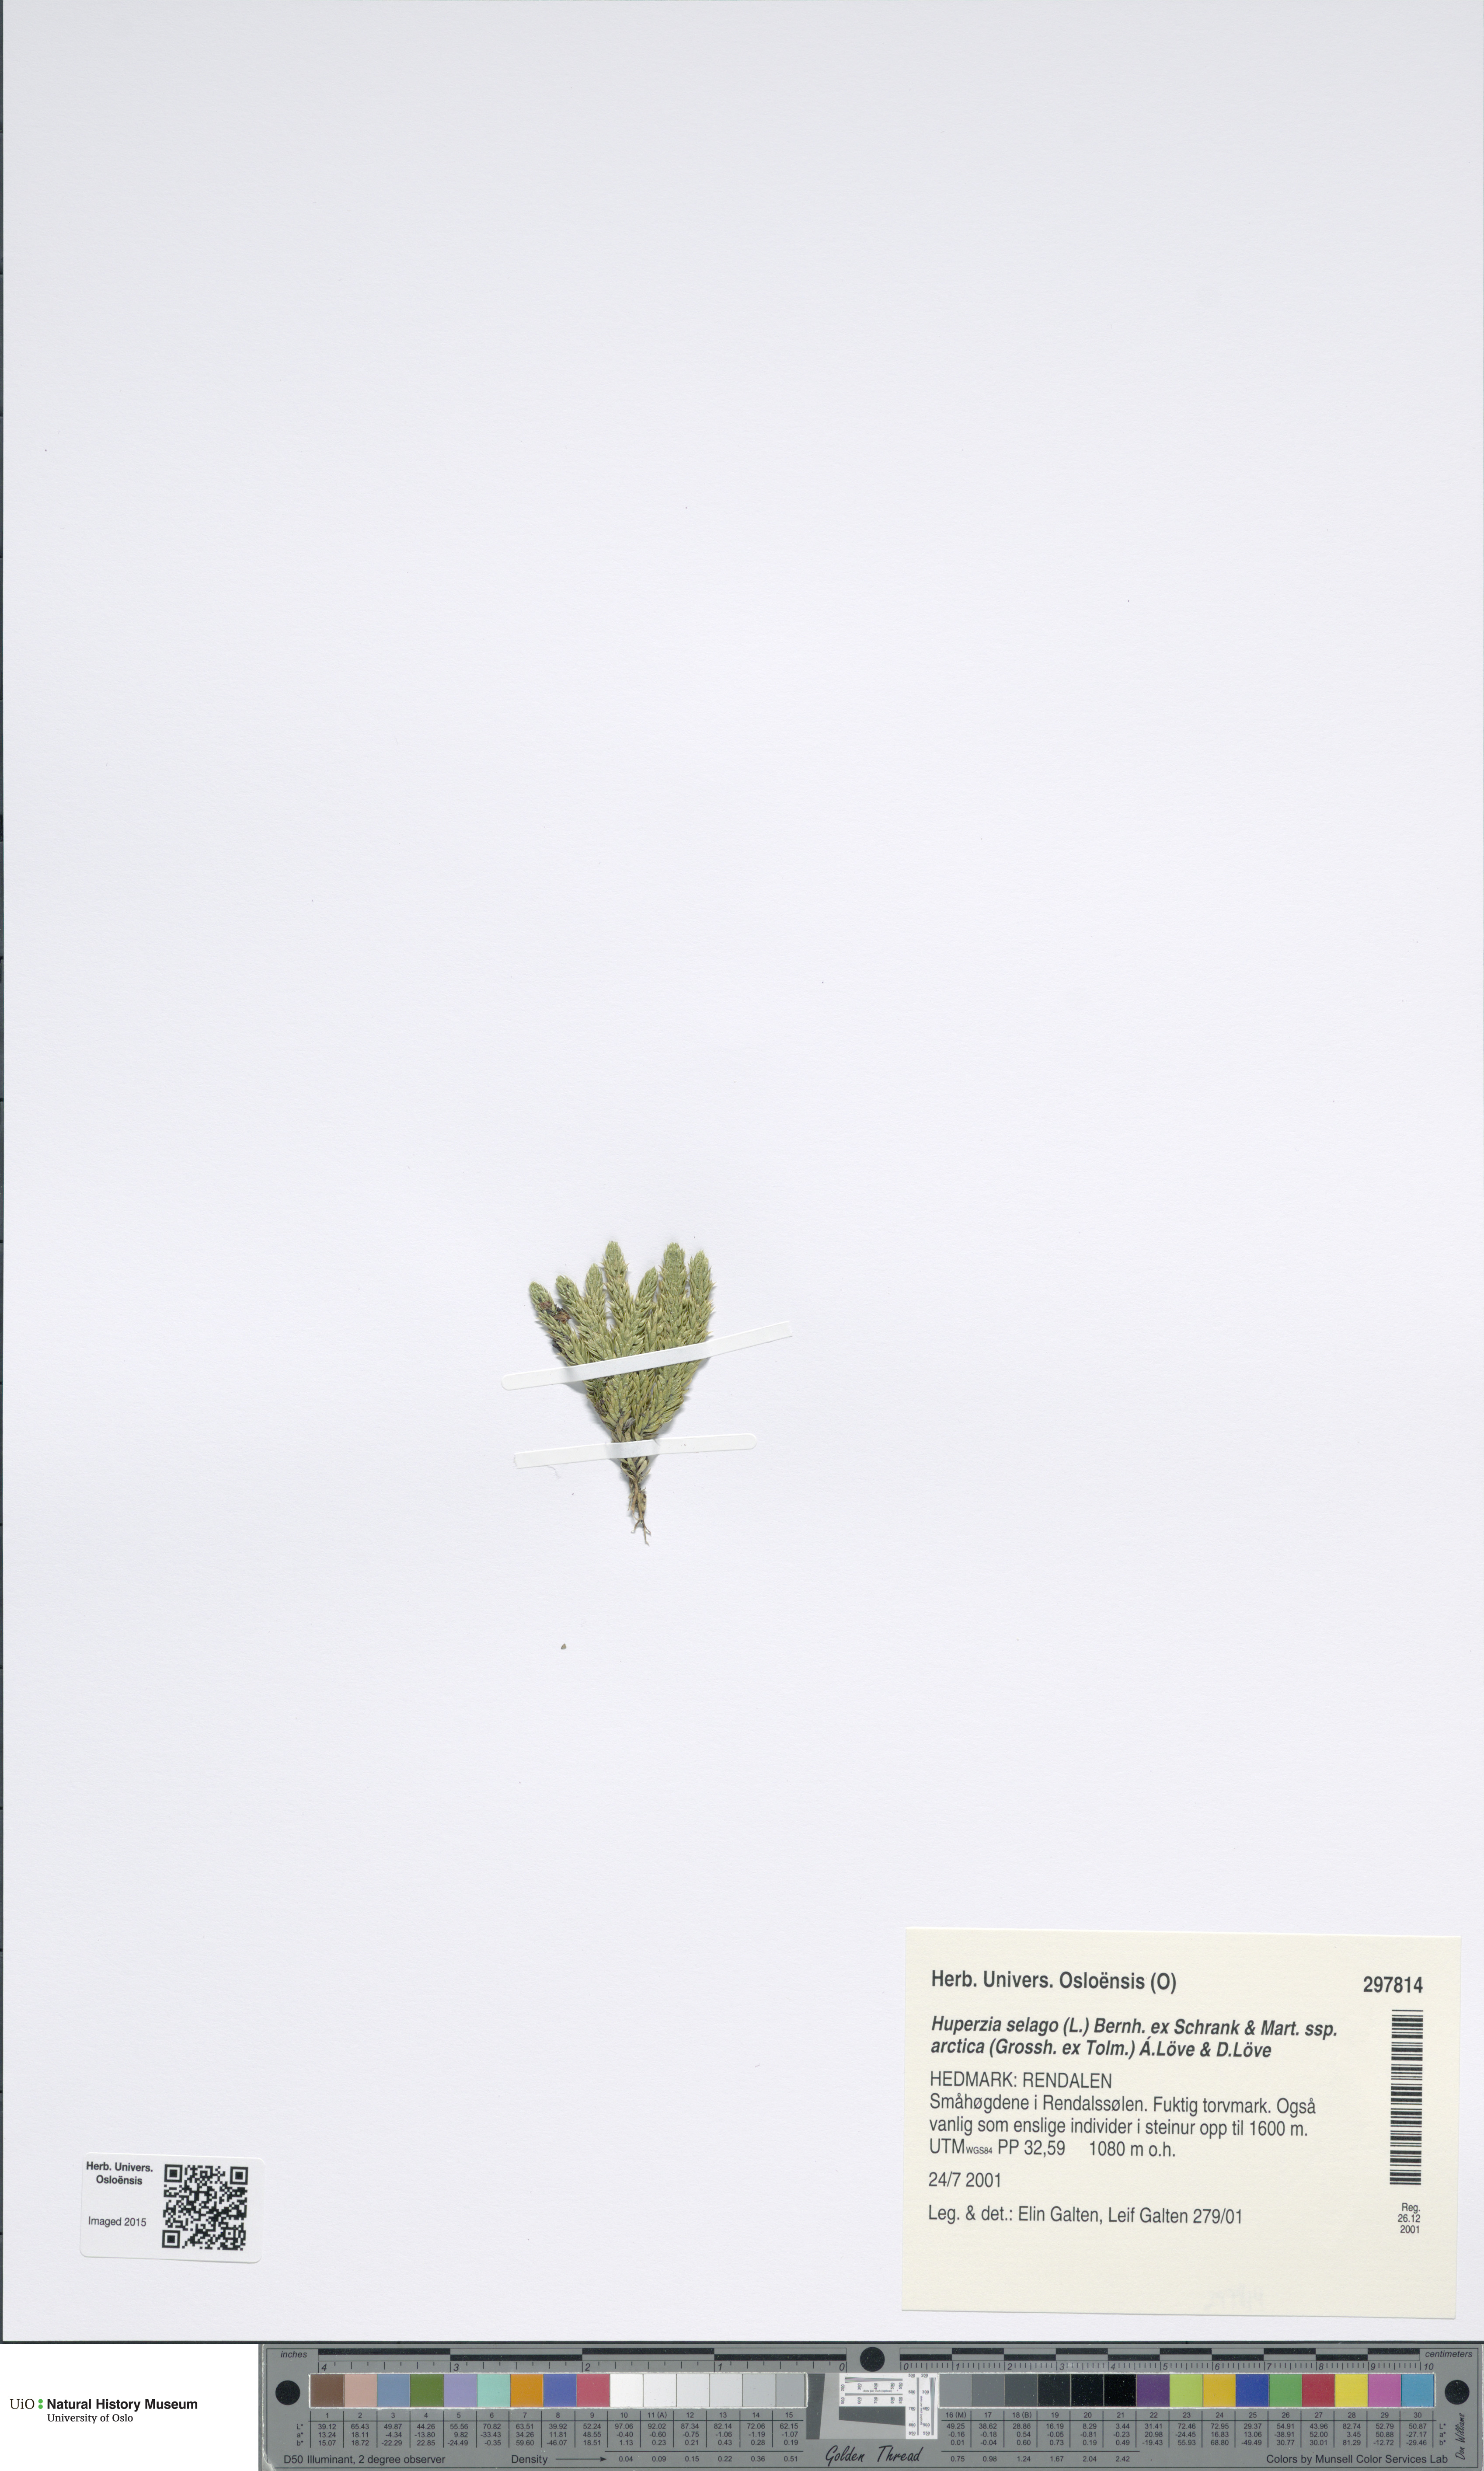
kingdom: Plantae
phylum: Tracheophyta
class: Lycopodiopsida
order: Lycopodiales
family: Lycopodiaceae
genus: Huperzia
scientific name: Huperzia selago
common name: Northern firmoss
